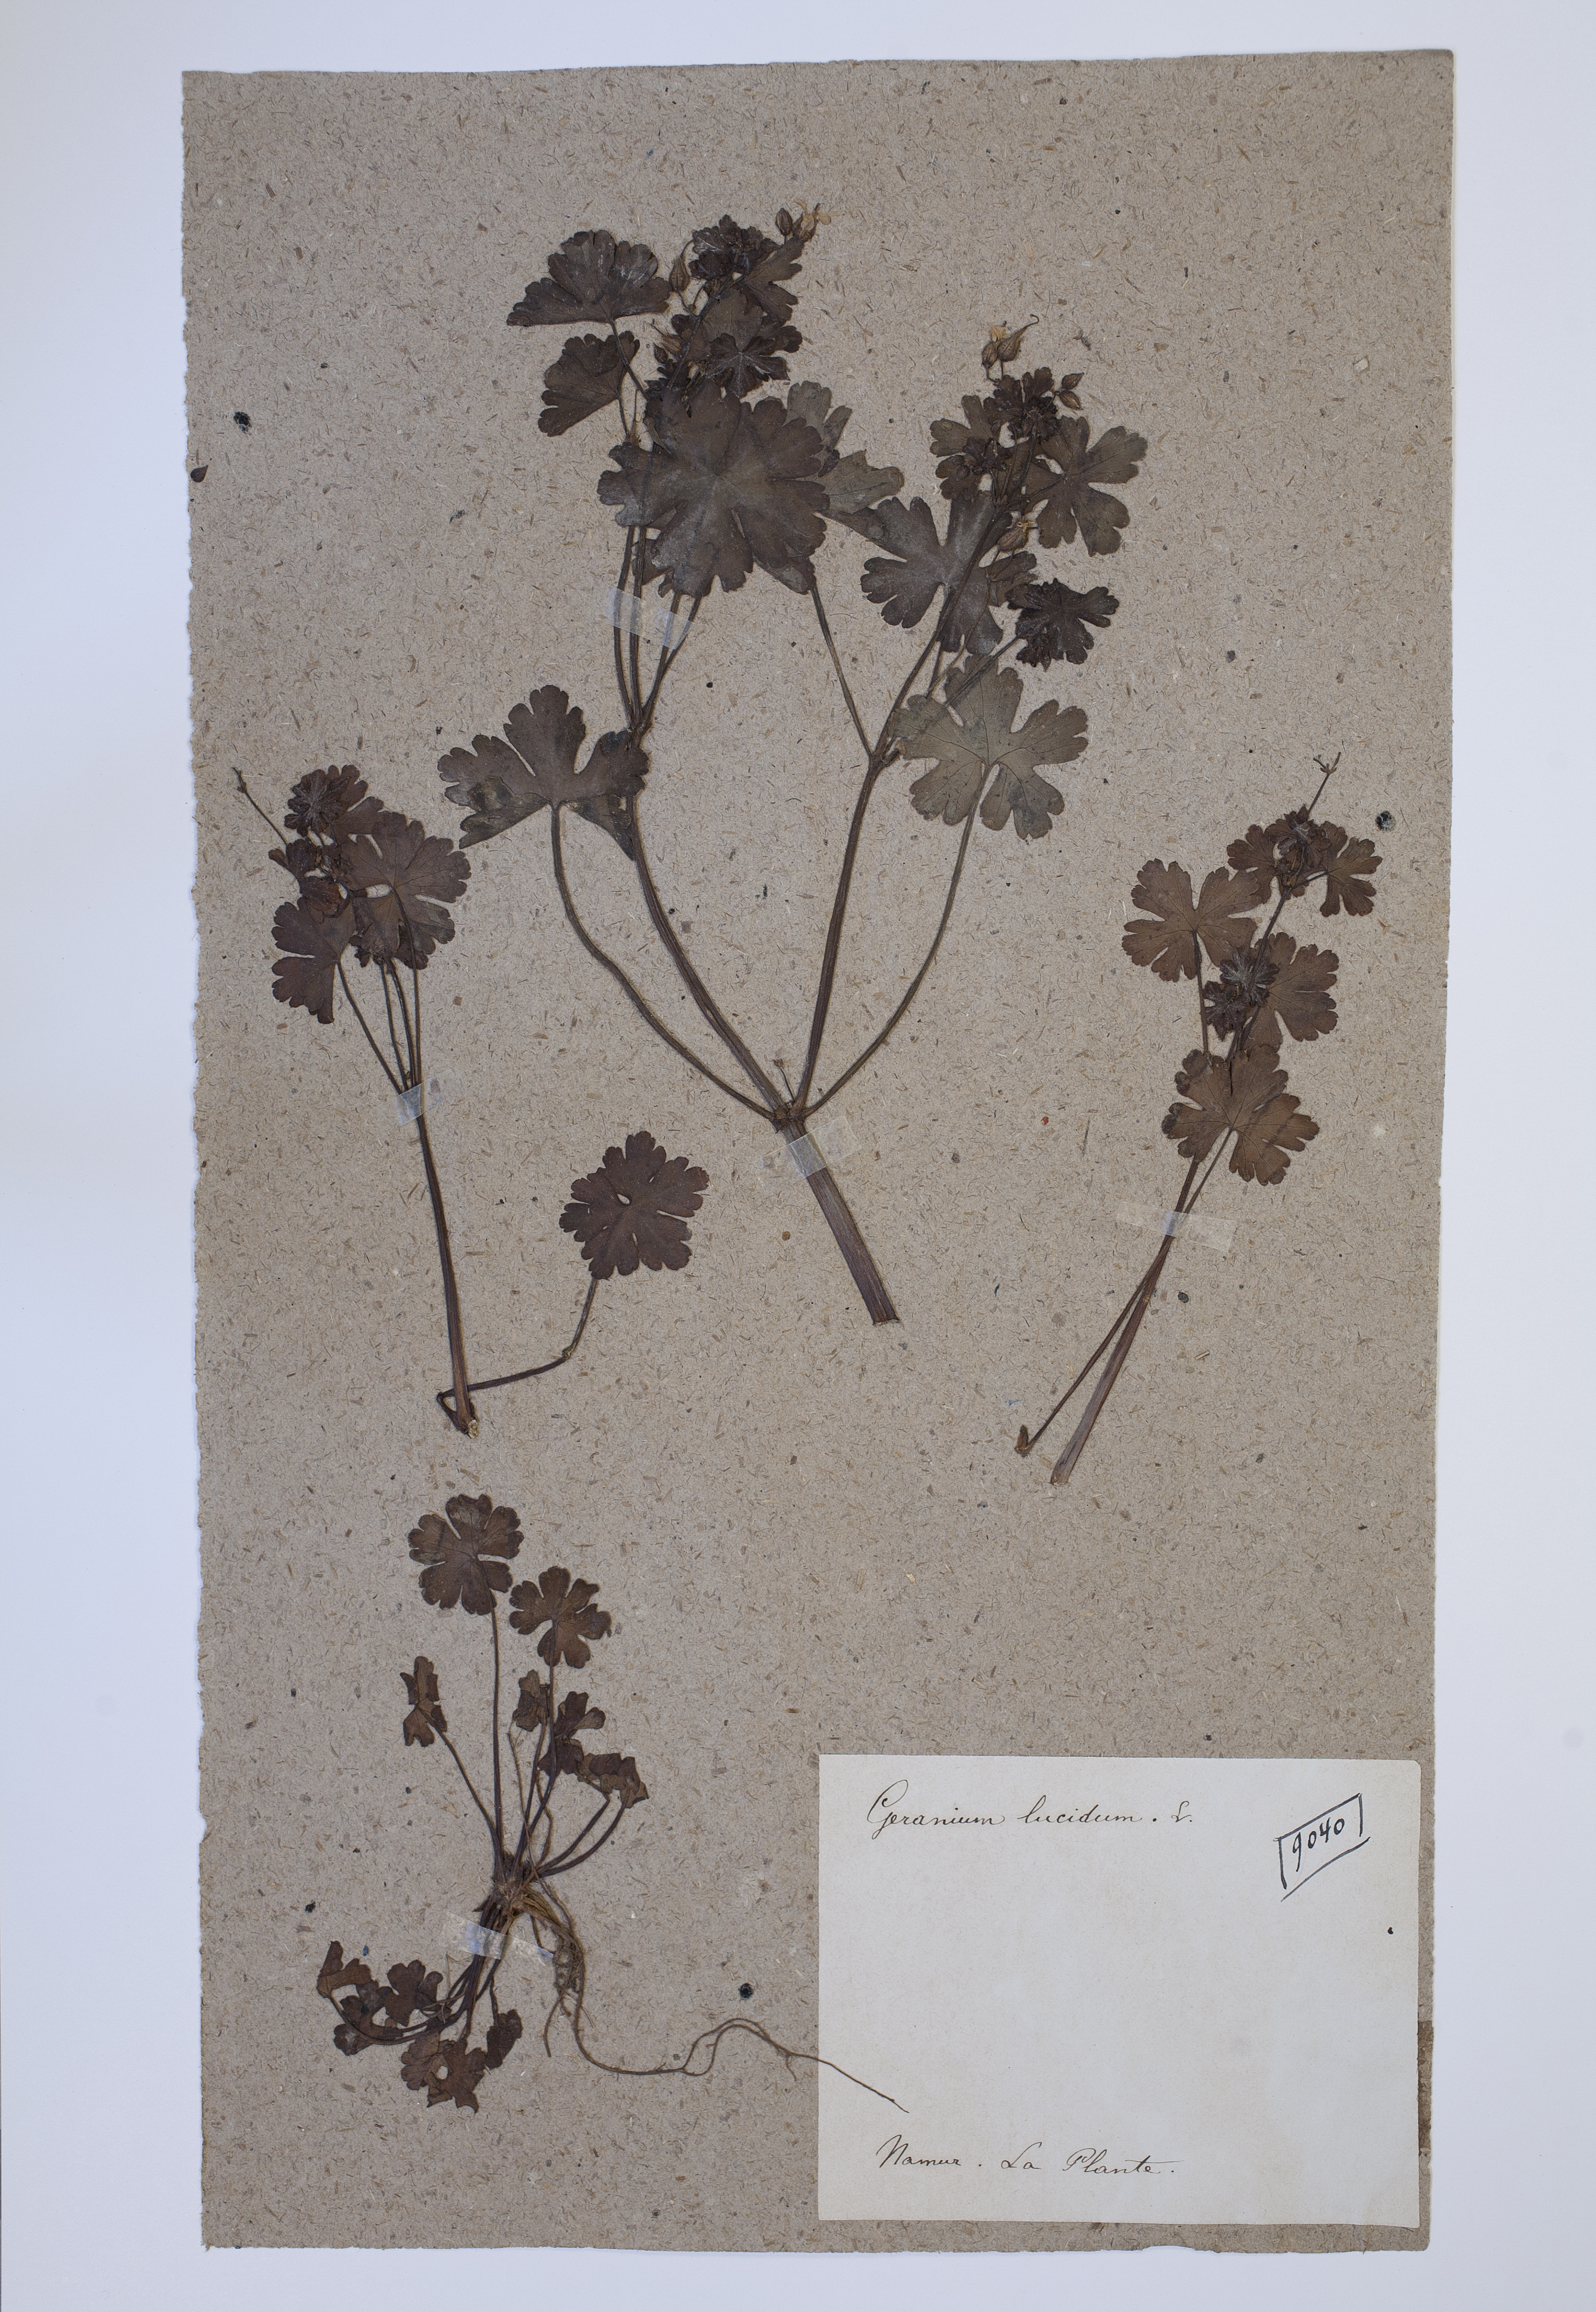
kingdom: Plantae
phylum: Tracheophyta
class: Magnoliopsida
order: Geraniales
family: Geraniaceae
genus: Geranium
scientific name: Geranium lucidum
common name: Shining crane's-bill
